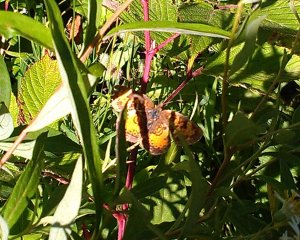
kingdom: Animalia
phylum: Arthropoda
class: Insecta
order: Lepidoptera
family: Nymphalidae
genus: Phyciodes
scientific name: Phyciodes tharos
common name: Northern Crescent
